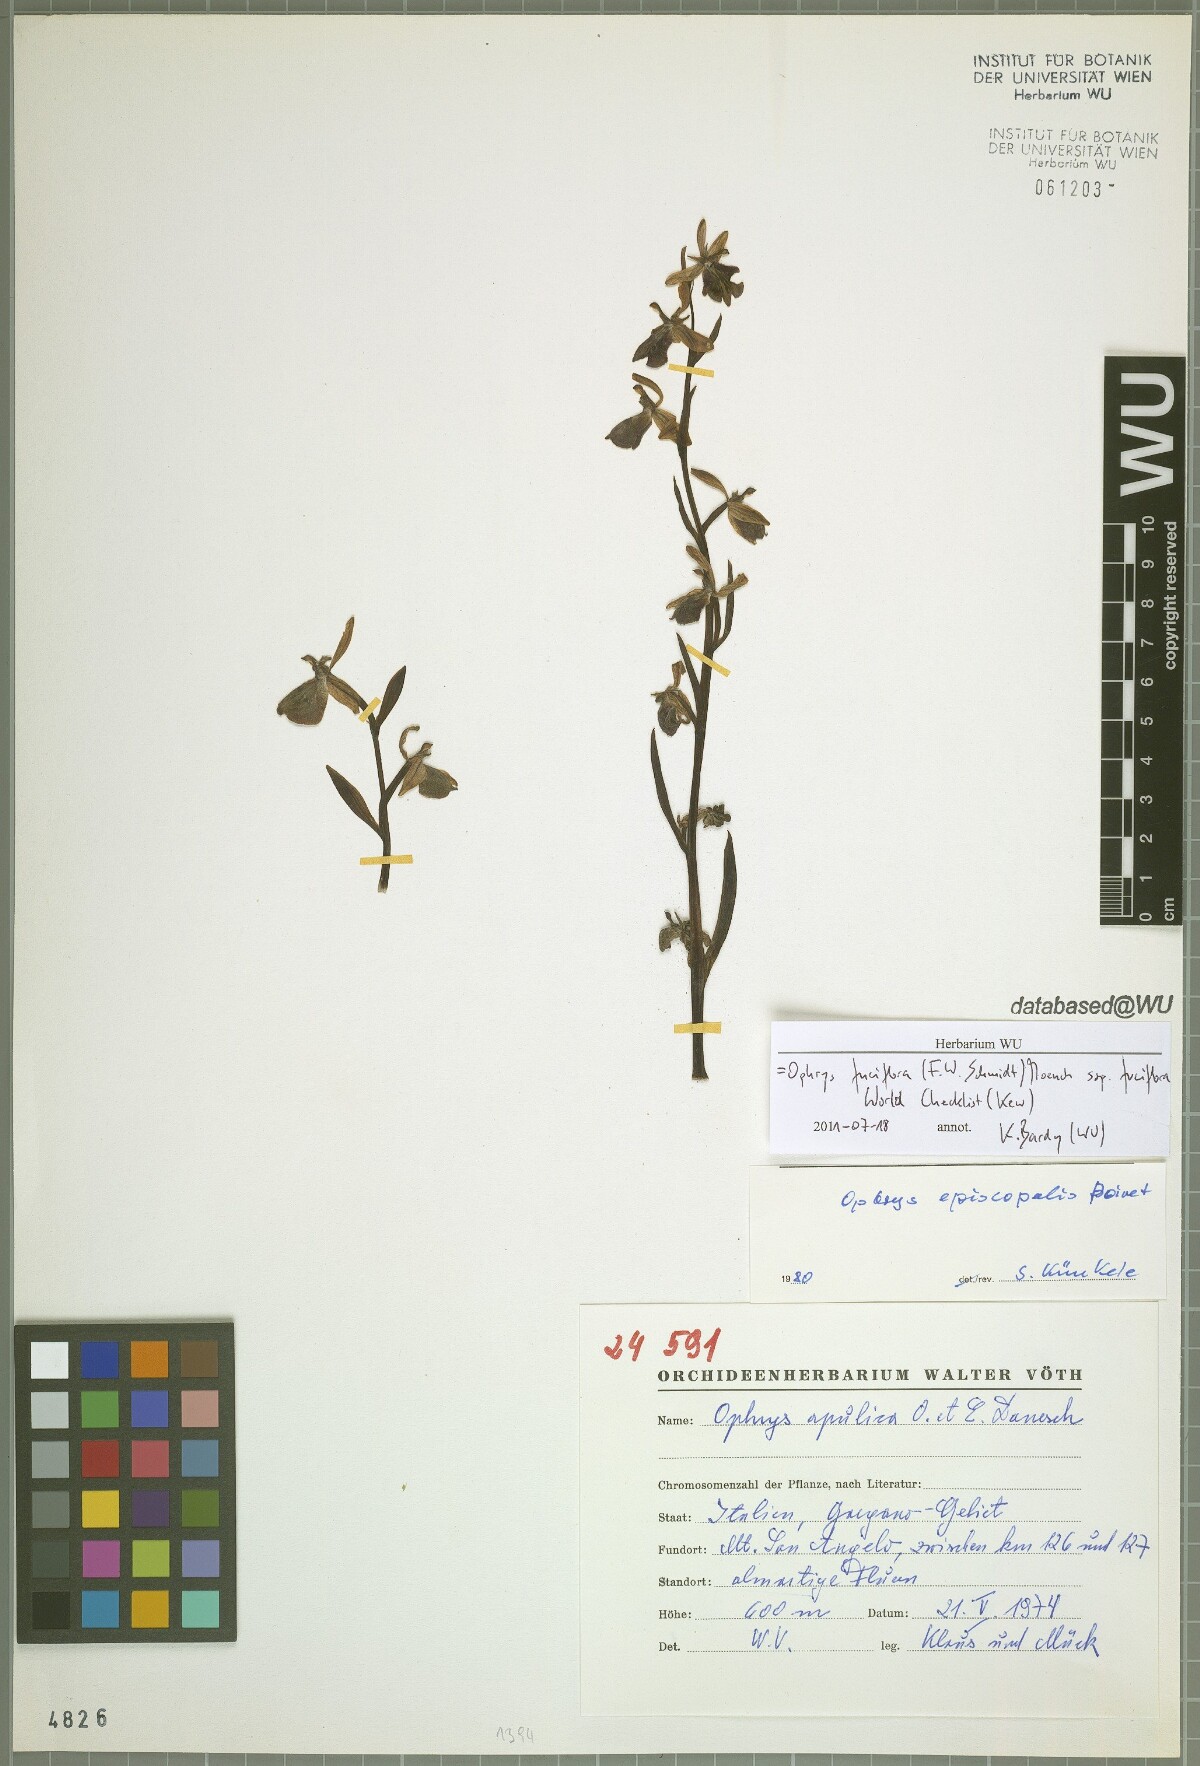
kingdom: Plantae
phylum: Tracheophyta
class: Liliopsida
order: Asparagales
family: Orchidaceae
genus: Ophrys
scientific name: Ophrys holosericea
